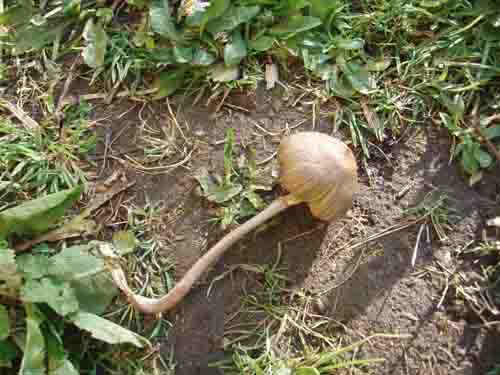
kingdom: Fungi
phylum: Basidiomycota
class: Agaricomycetes
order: Agaricales
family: Mycenaceae
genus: Mycena
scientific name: Mycena galericulata
